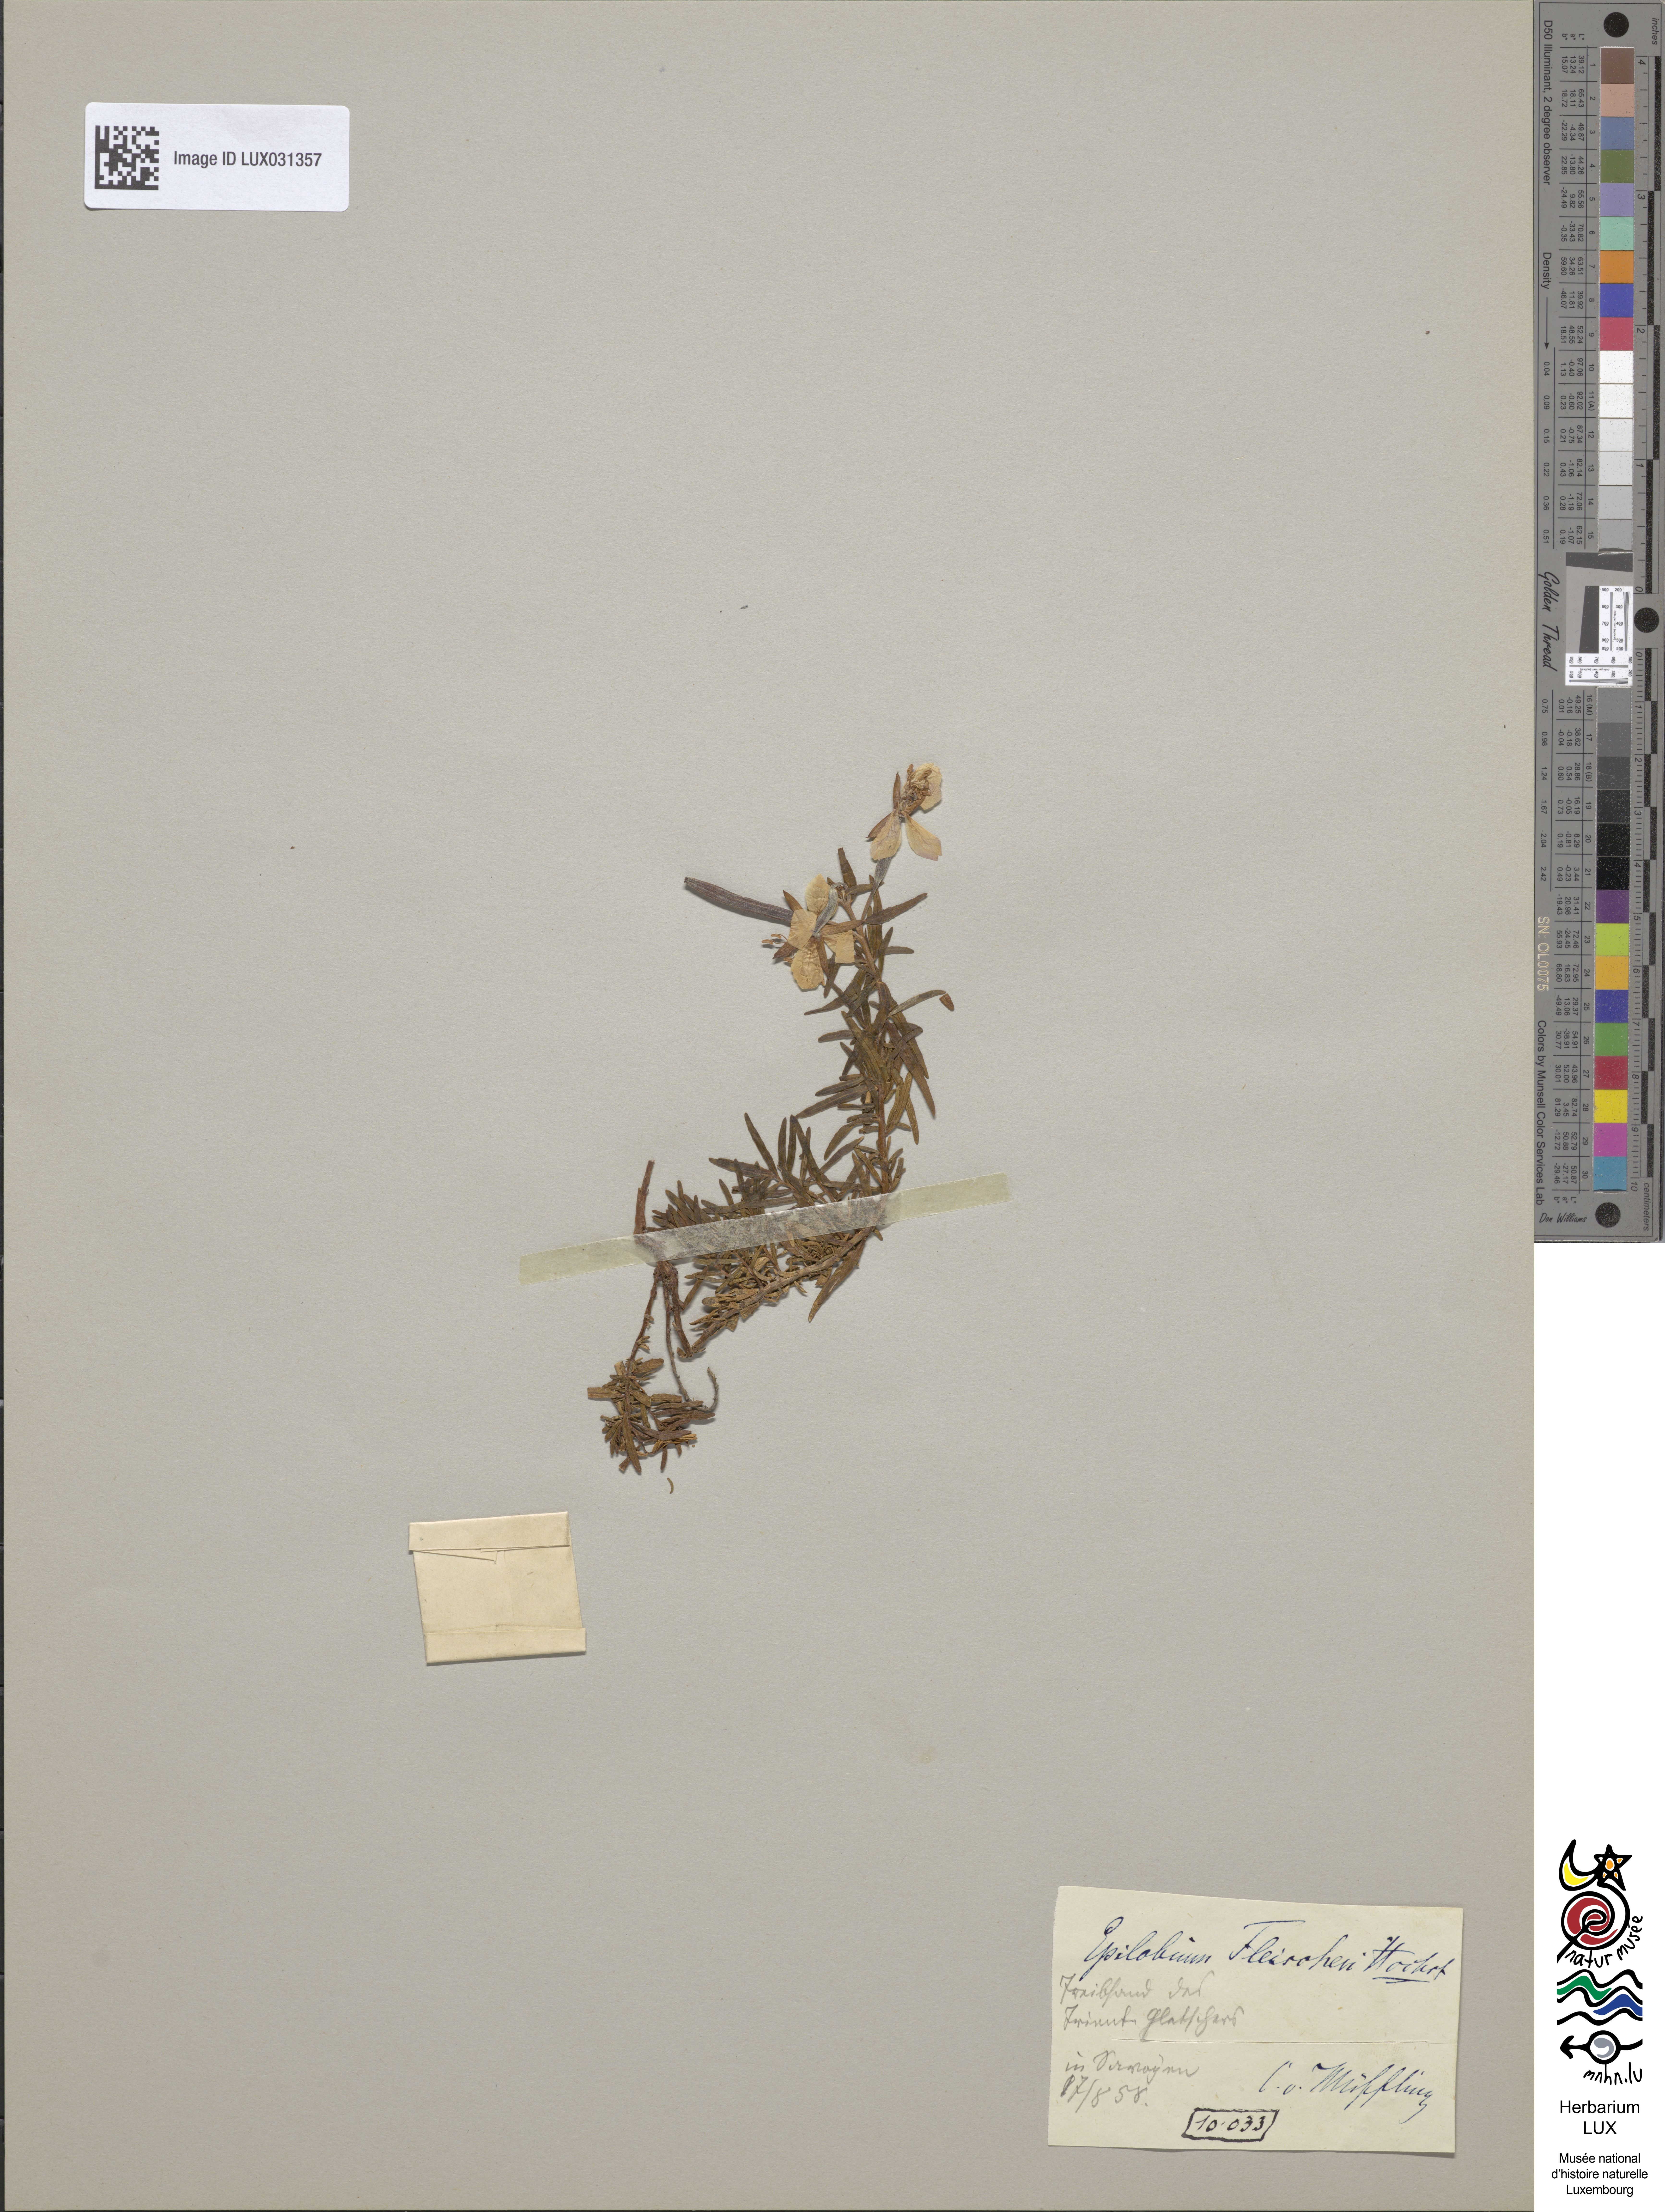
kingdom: Plantae
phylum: Tracheophyta
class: Magnoliopsida
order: Myrtales
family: Onagraceae
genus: Chamaenerion
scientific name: Chamaenerion fleischeri
